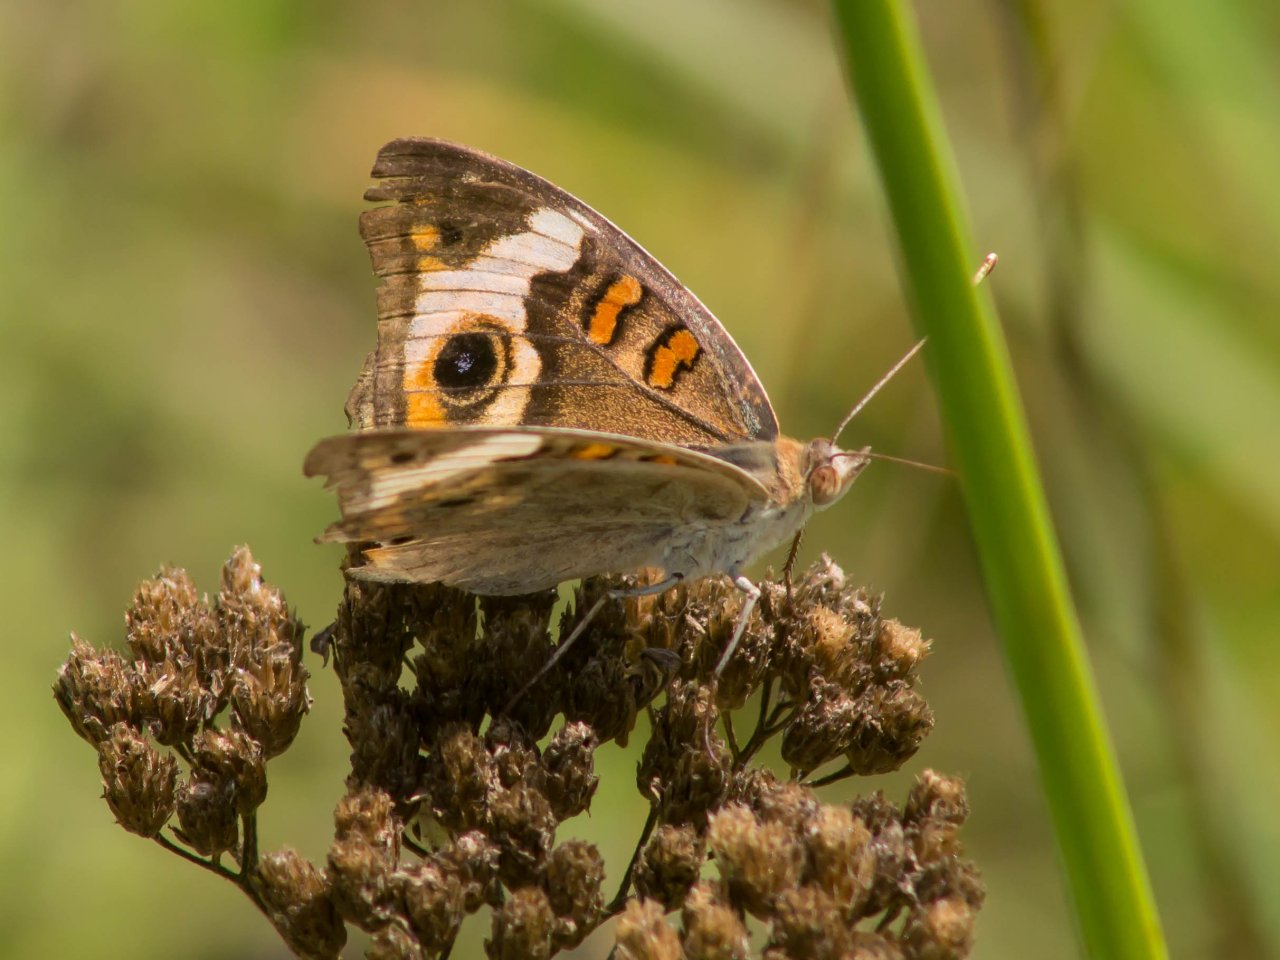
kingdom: Animalia
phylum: Arthropoda
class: Insecta
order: Lepidoptera
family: Nymphalidae
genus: Junonia
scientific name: Junonia coenia
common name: Common Buckeye
